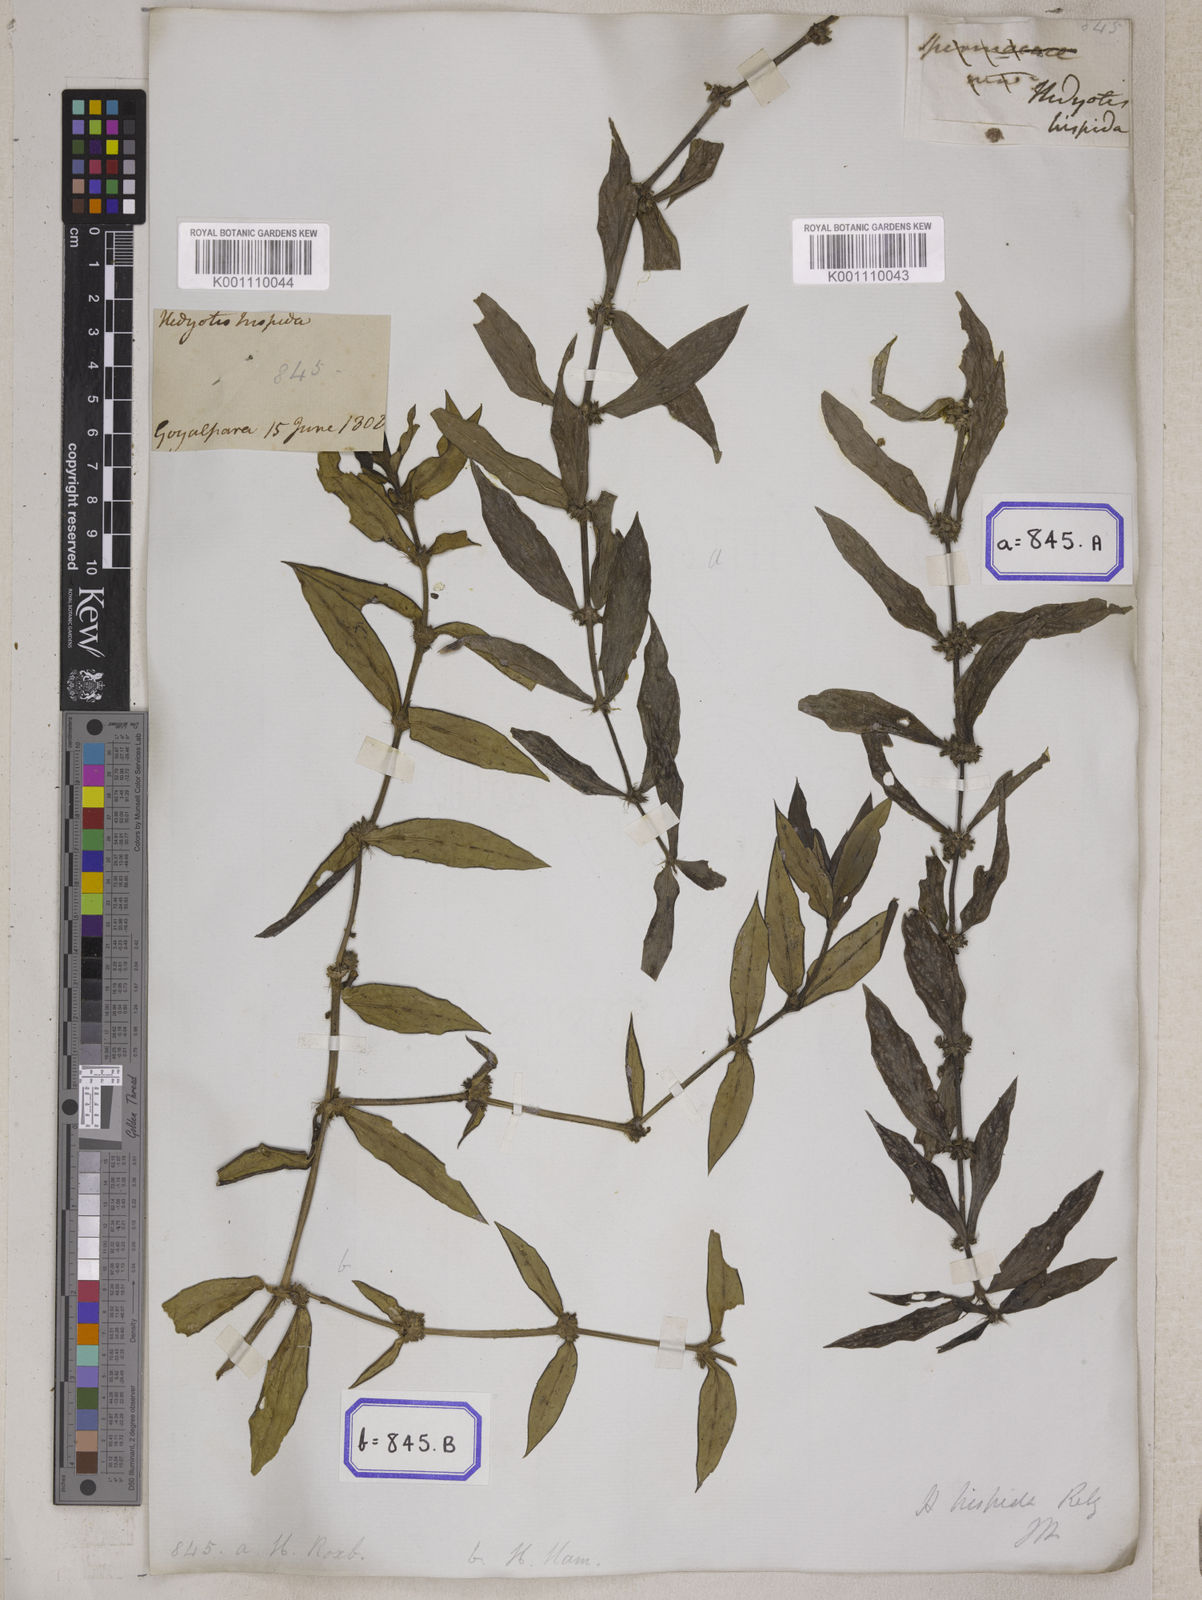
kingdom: Plantae
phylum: Tracheophyta
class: Magnoliopsida
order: Gentianales
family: Rubiaceae
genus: Scleromitrion
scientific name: Scleromitrion verticillatum
